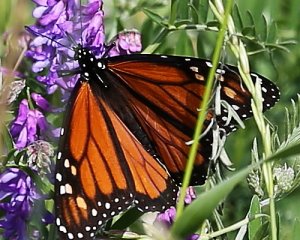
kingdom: Animalia
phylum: Arthropoda
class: Insecta
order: Lepidoptera
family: Nymphalidae
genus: Danaus
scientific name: Danaus plexippus
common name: Monarch
